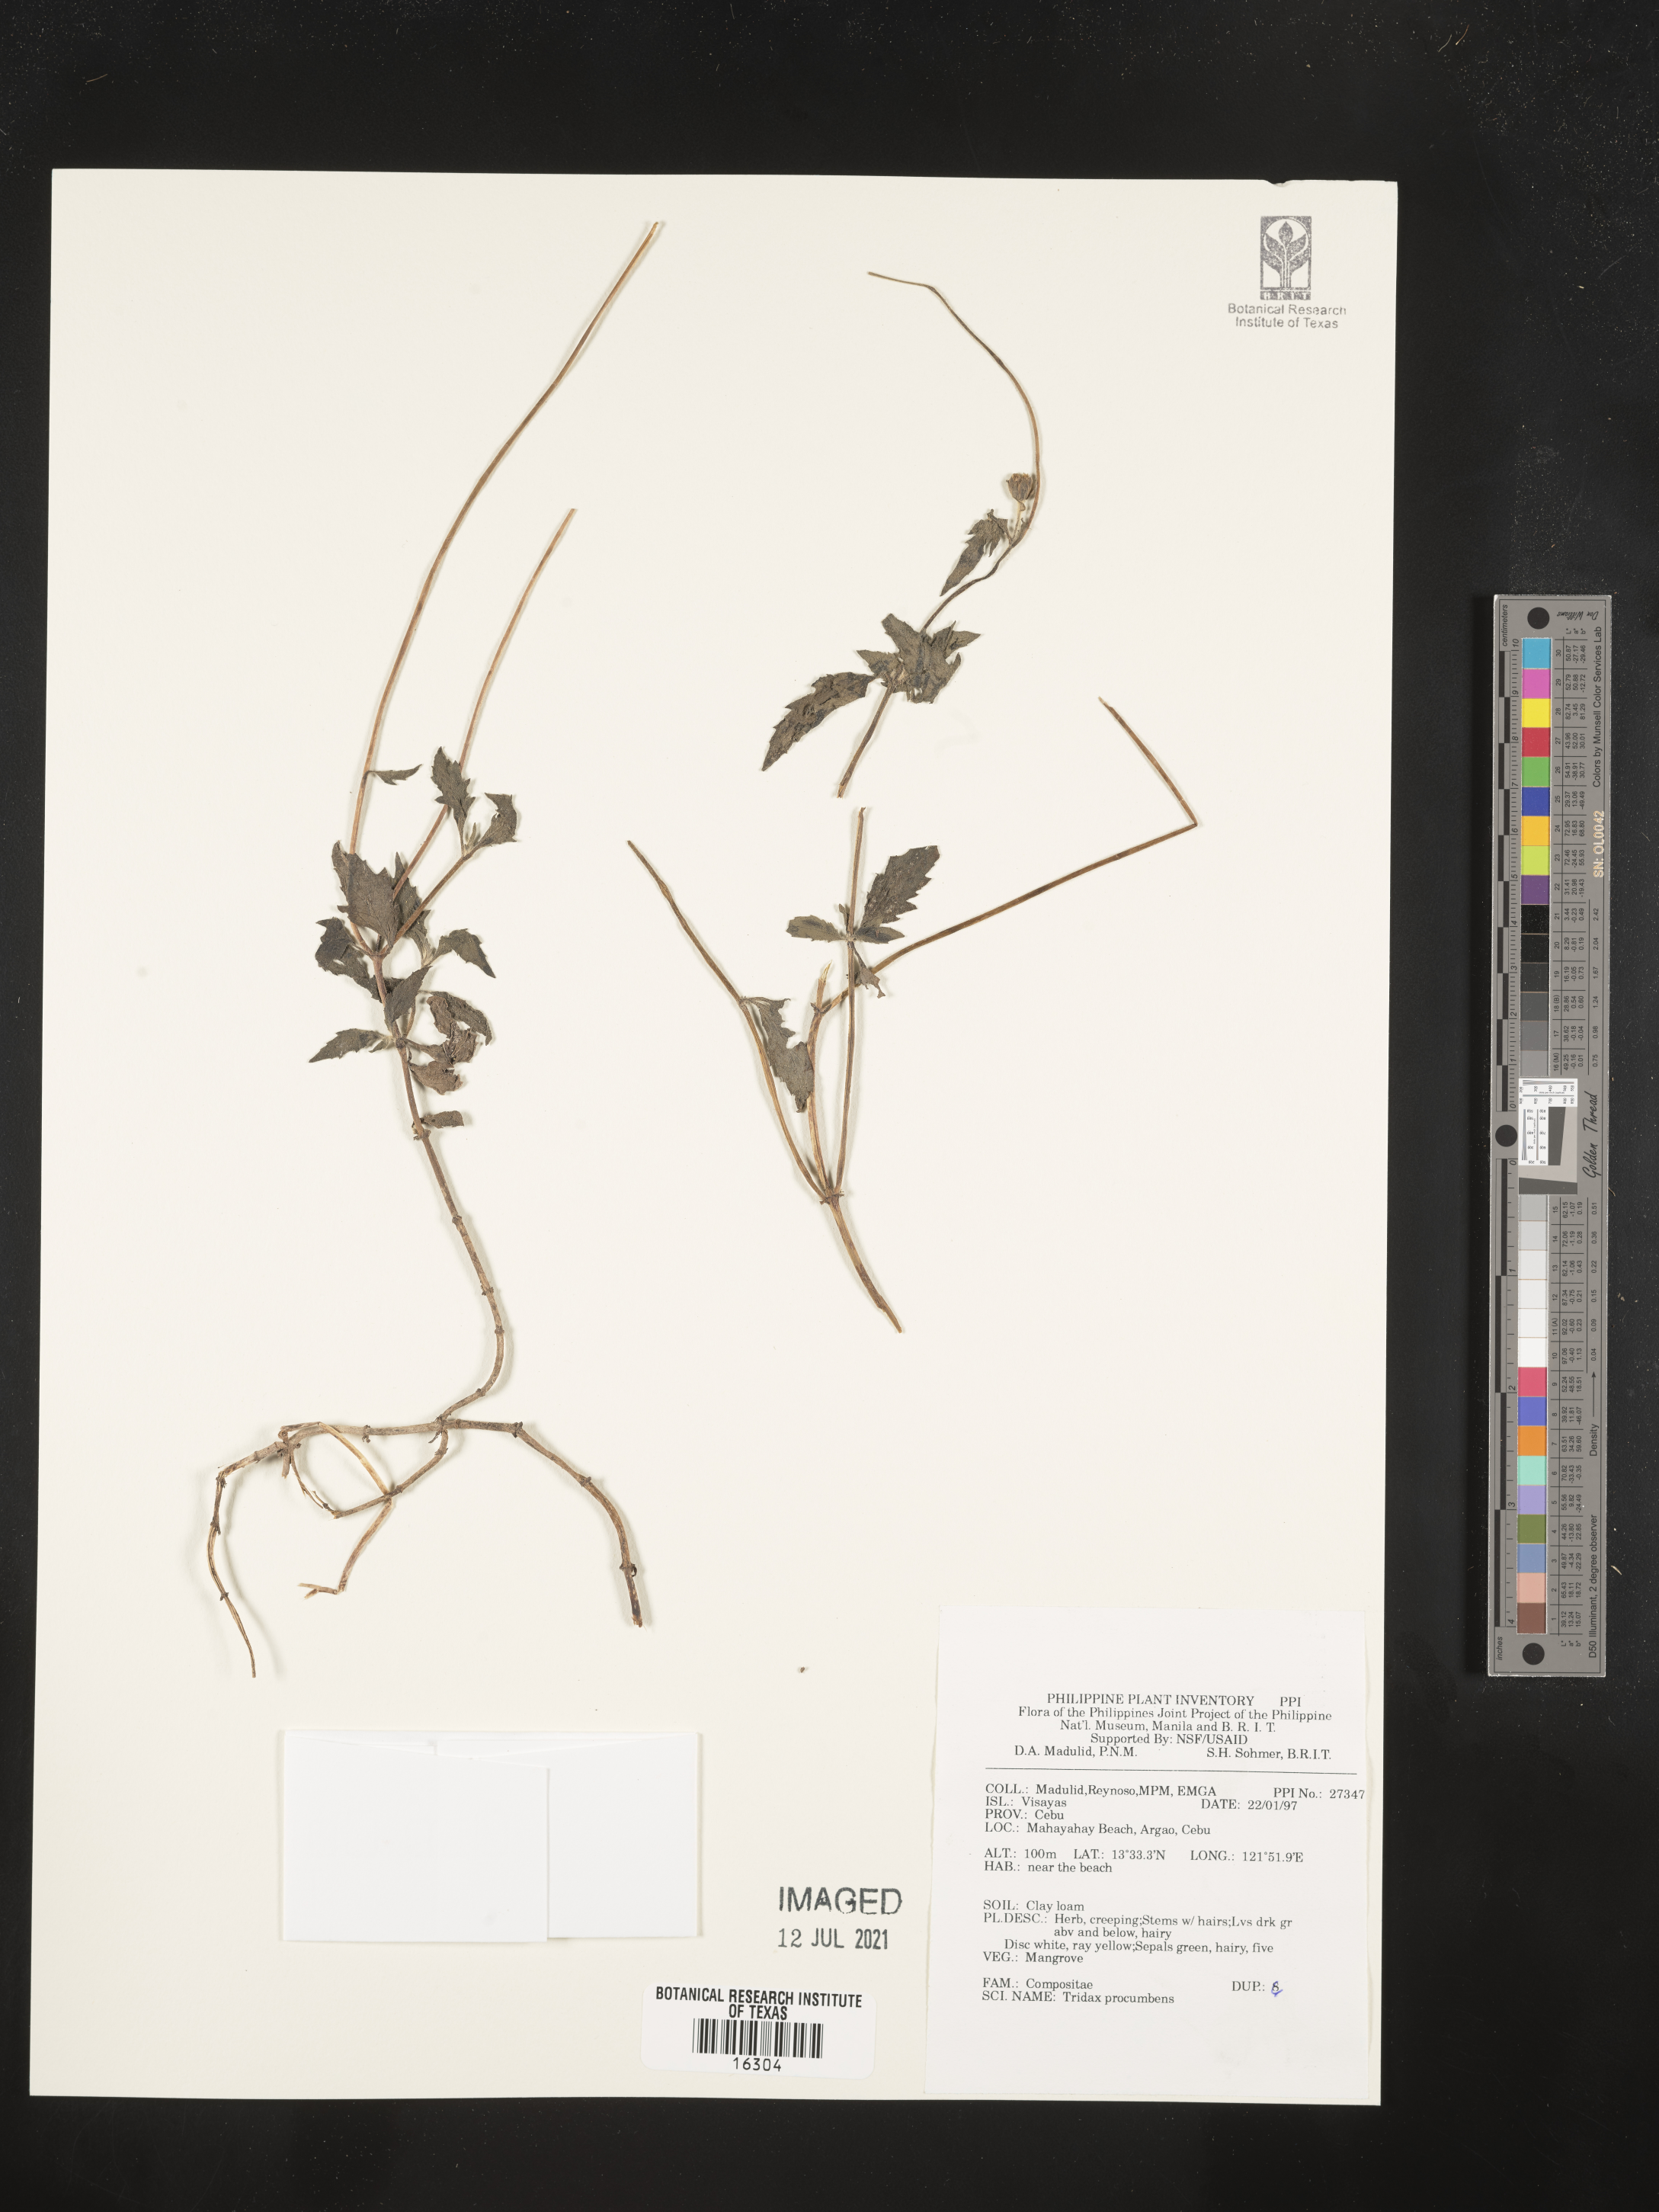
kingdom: Plantae
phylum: Tracheophyta
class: Magnoliopsida
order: Asterales
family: Asteraceae
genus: Tridax
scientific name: Tridax procumbens
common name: Coatbuttons
